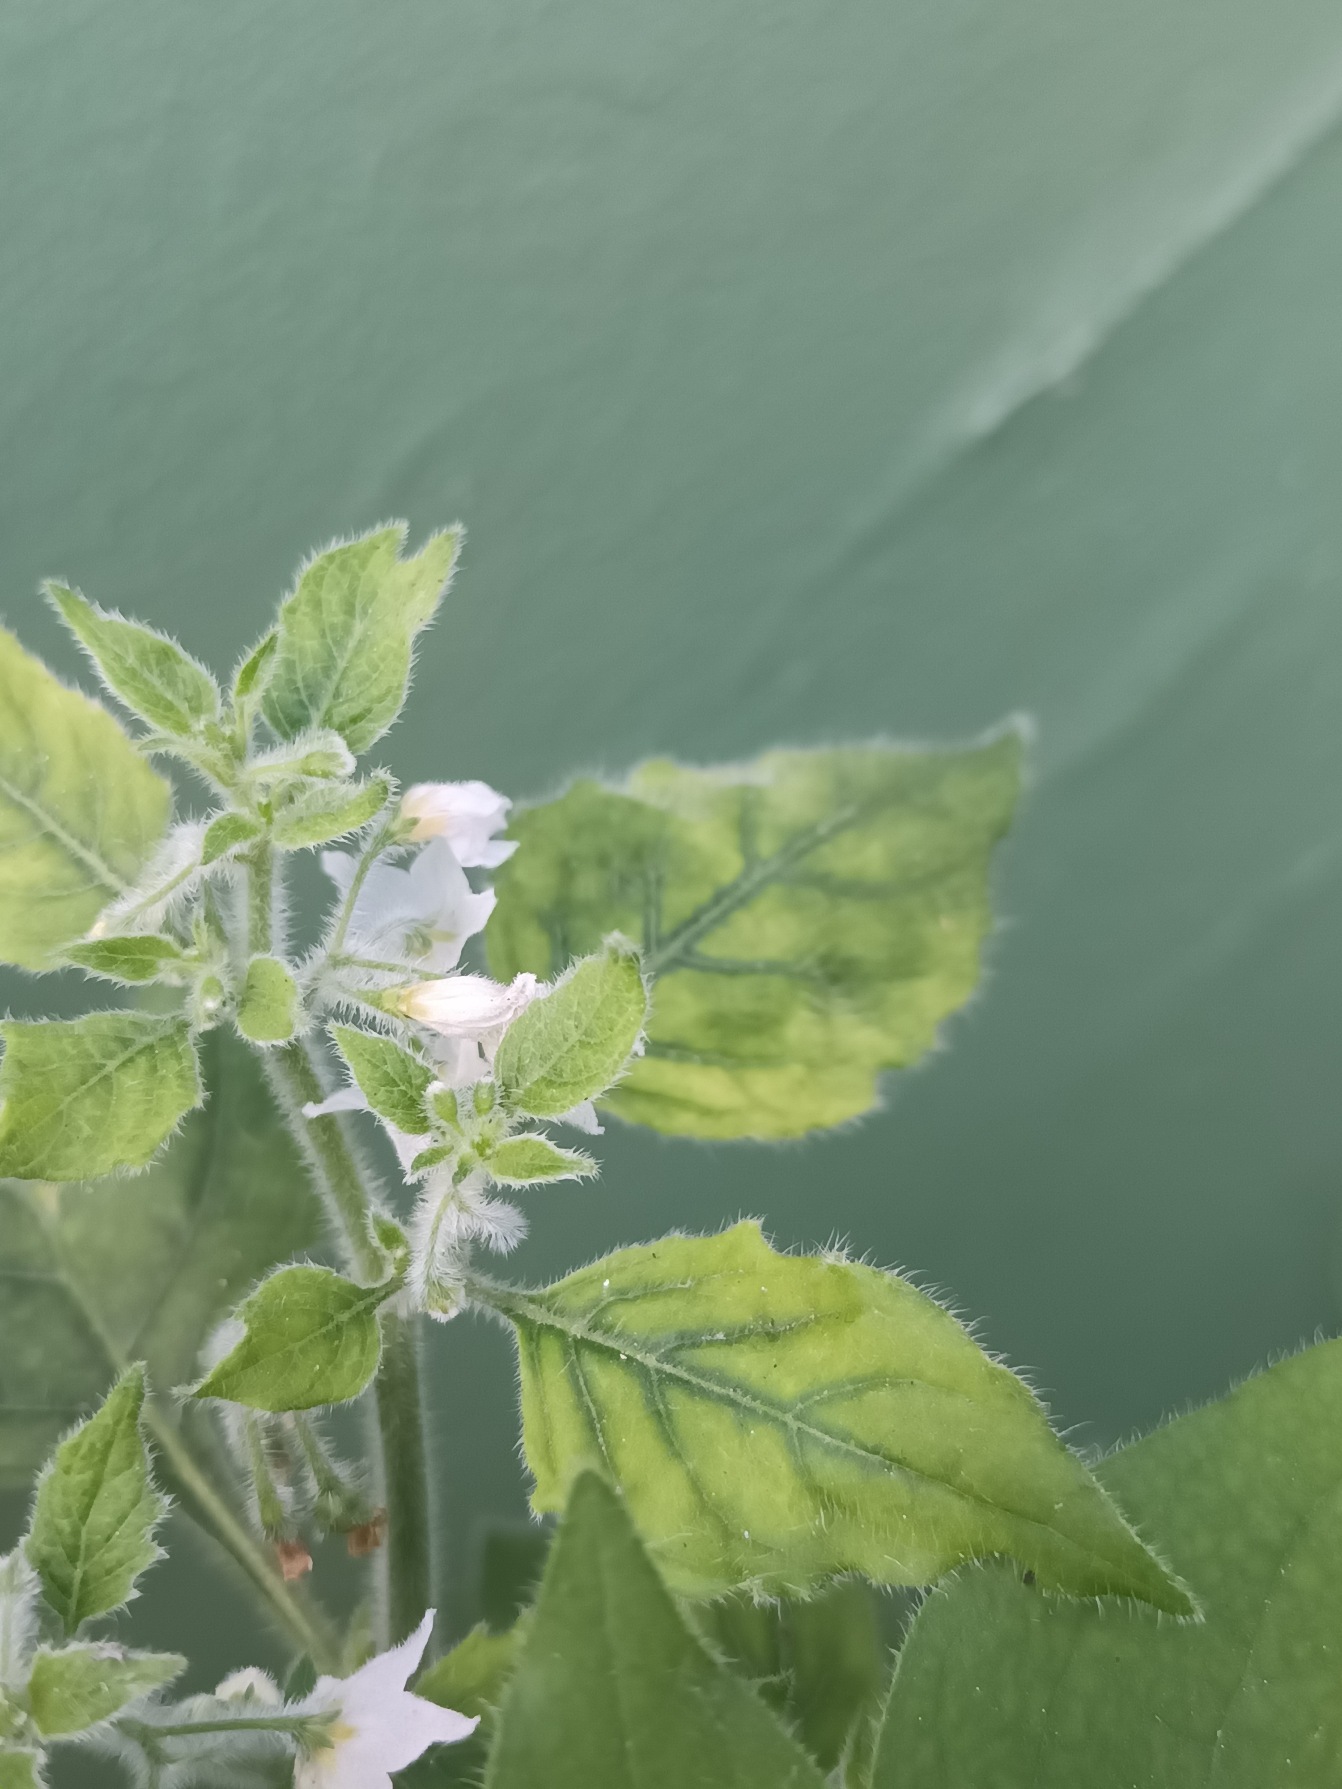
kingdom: Plantae
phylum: Tracheophyta
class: Magnoliopsida
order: Solanales
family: Solanaceae
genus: Solanum
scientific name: Solanum villosum
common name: Håret natskygge (underart)
